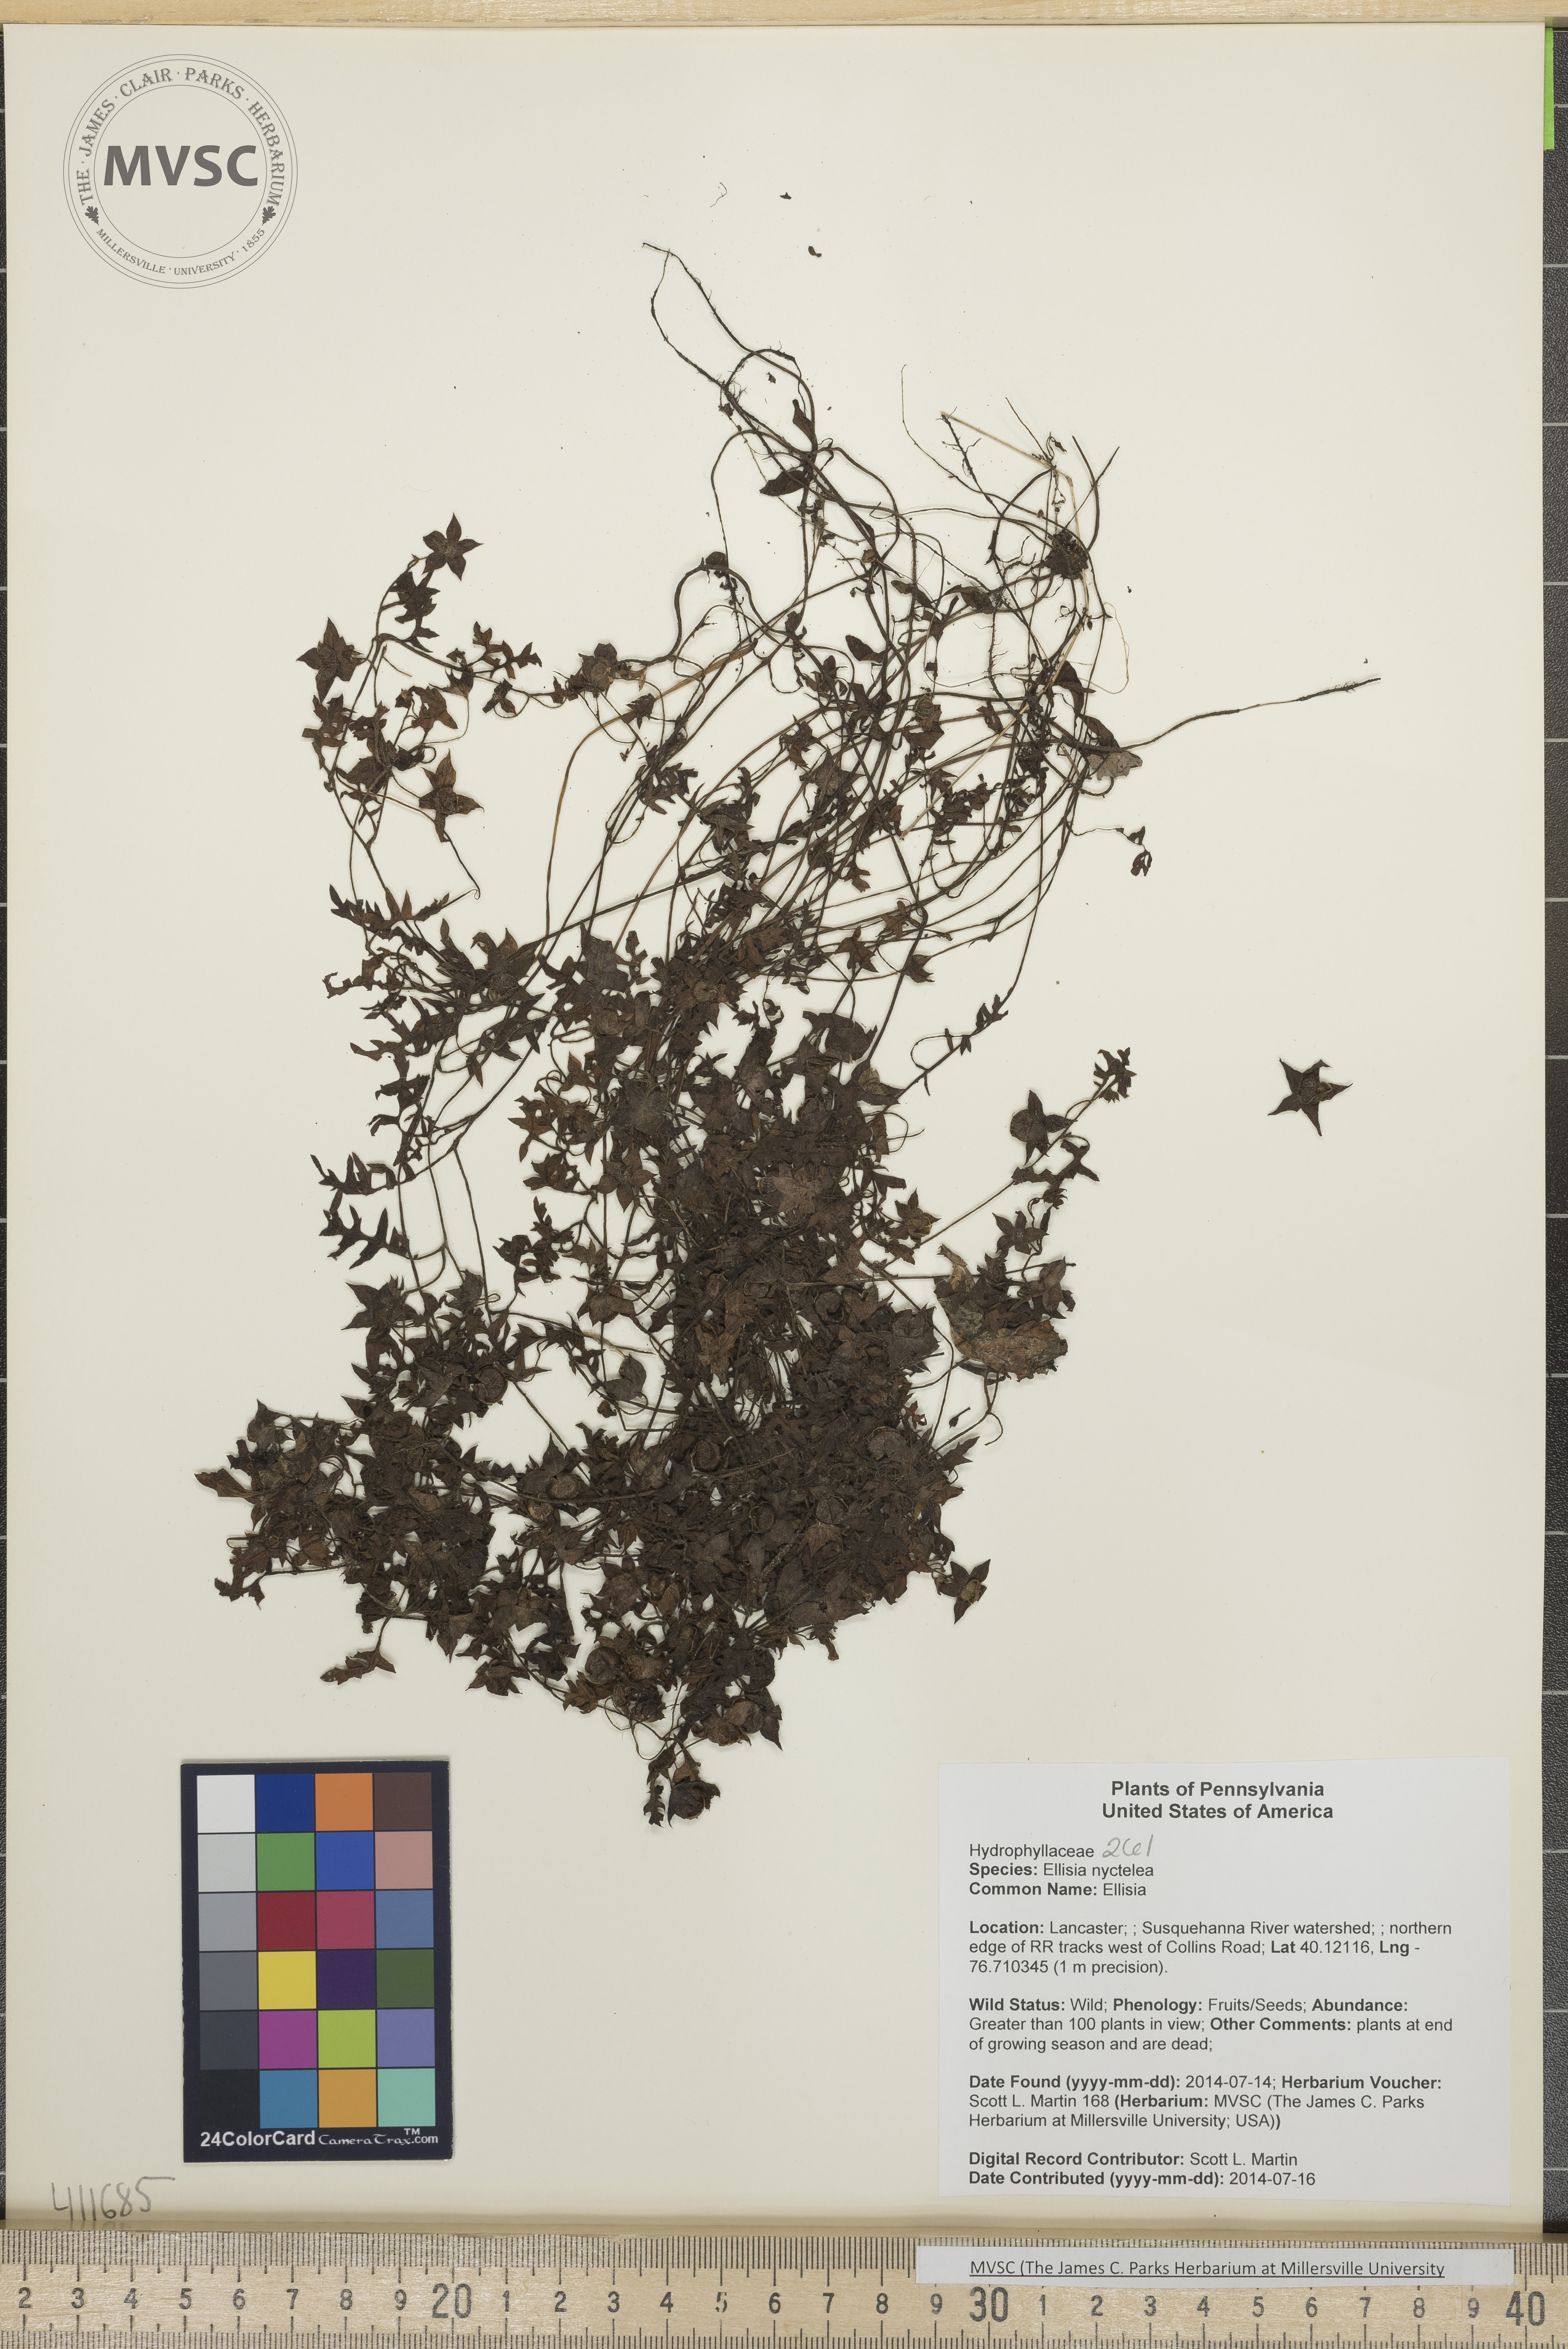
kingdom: Plantae
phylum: Tracheophyta
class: Magnoliopsida
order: Boraginales
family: Hydrophyllaceae
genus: Ellisia
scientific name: Ellisia nyctelea
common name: Ellisia
